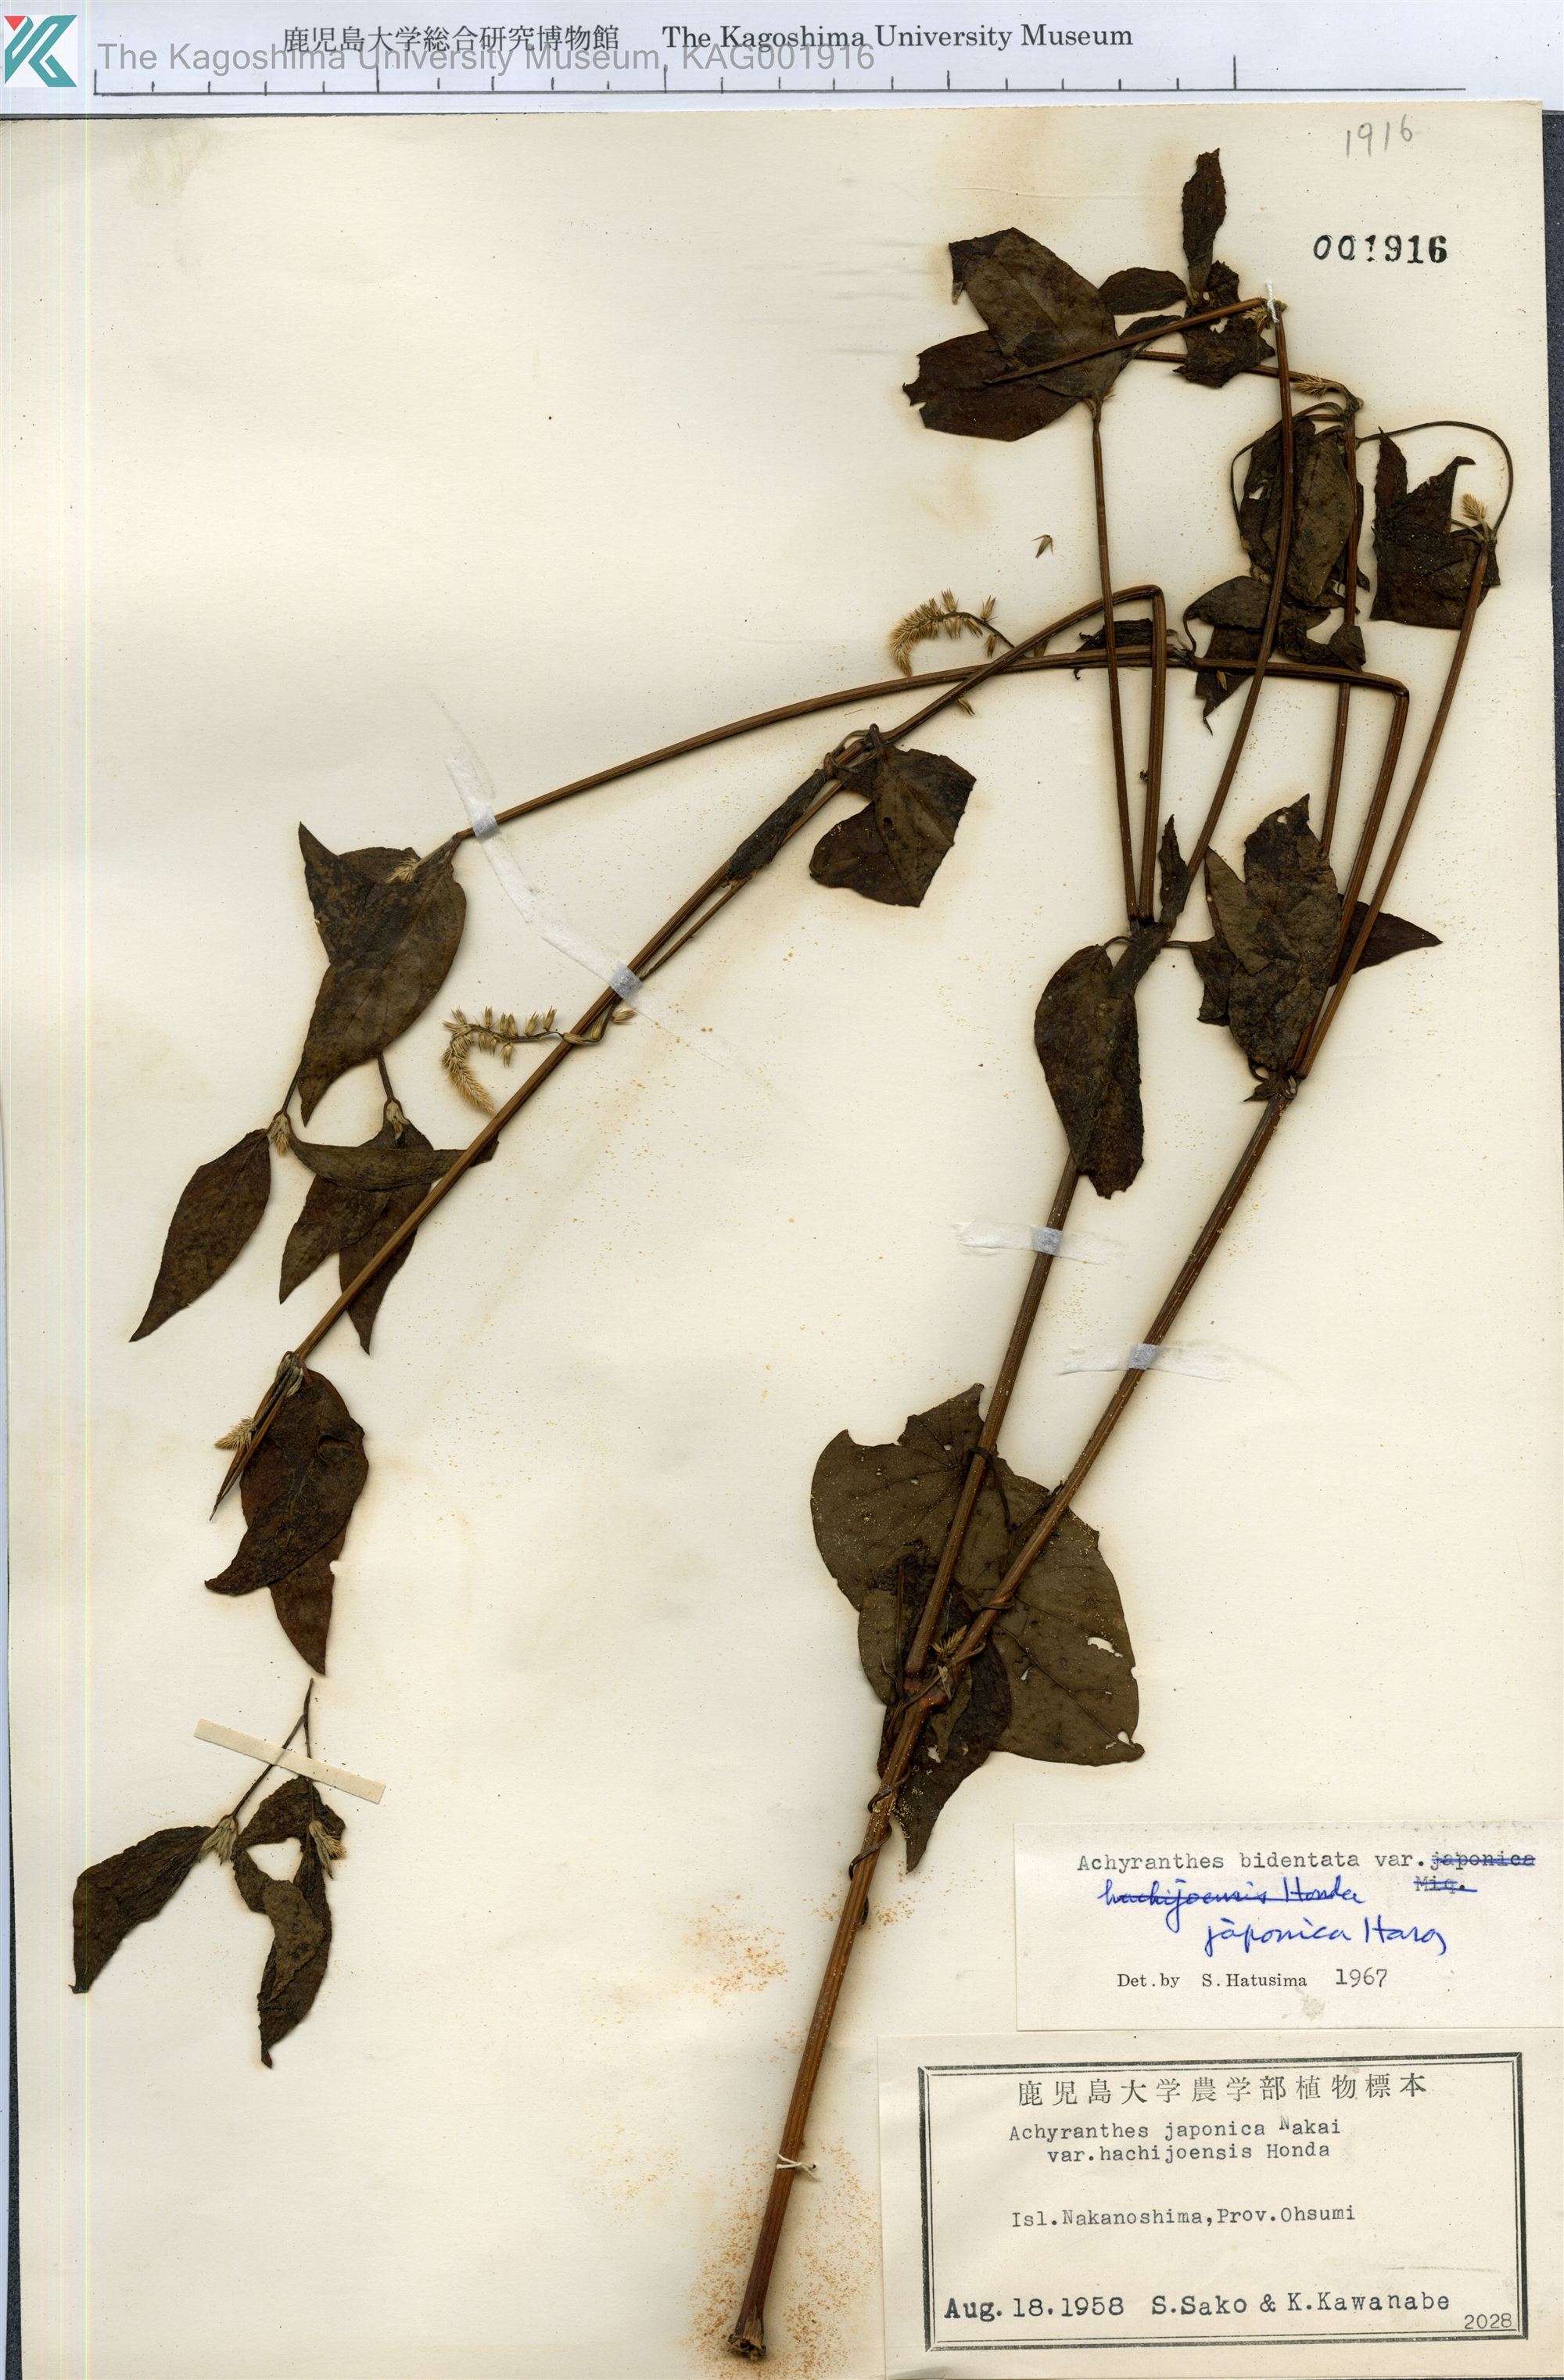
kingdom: Plantae
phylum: Tracheophyta
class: Magnoliopsida
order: Caryophyllales
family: Amaranthaceae
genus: Achyranthes
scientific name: Achyranthes bidentata
